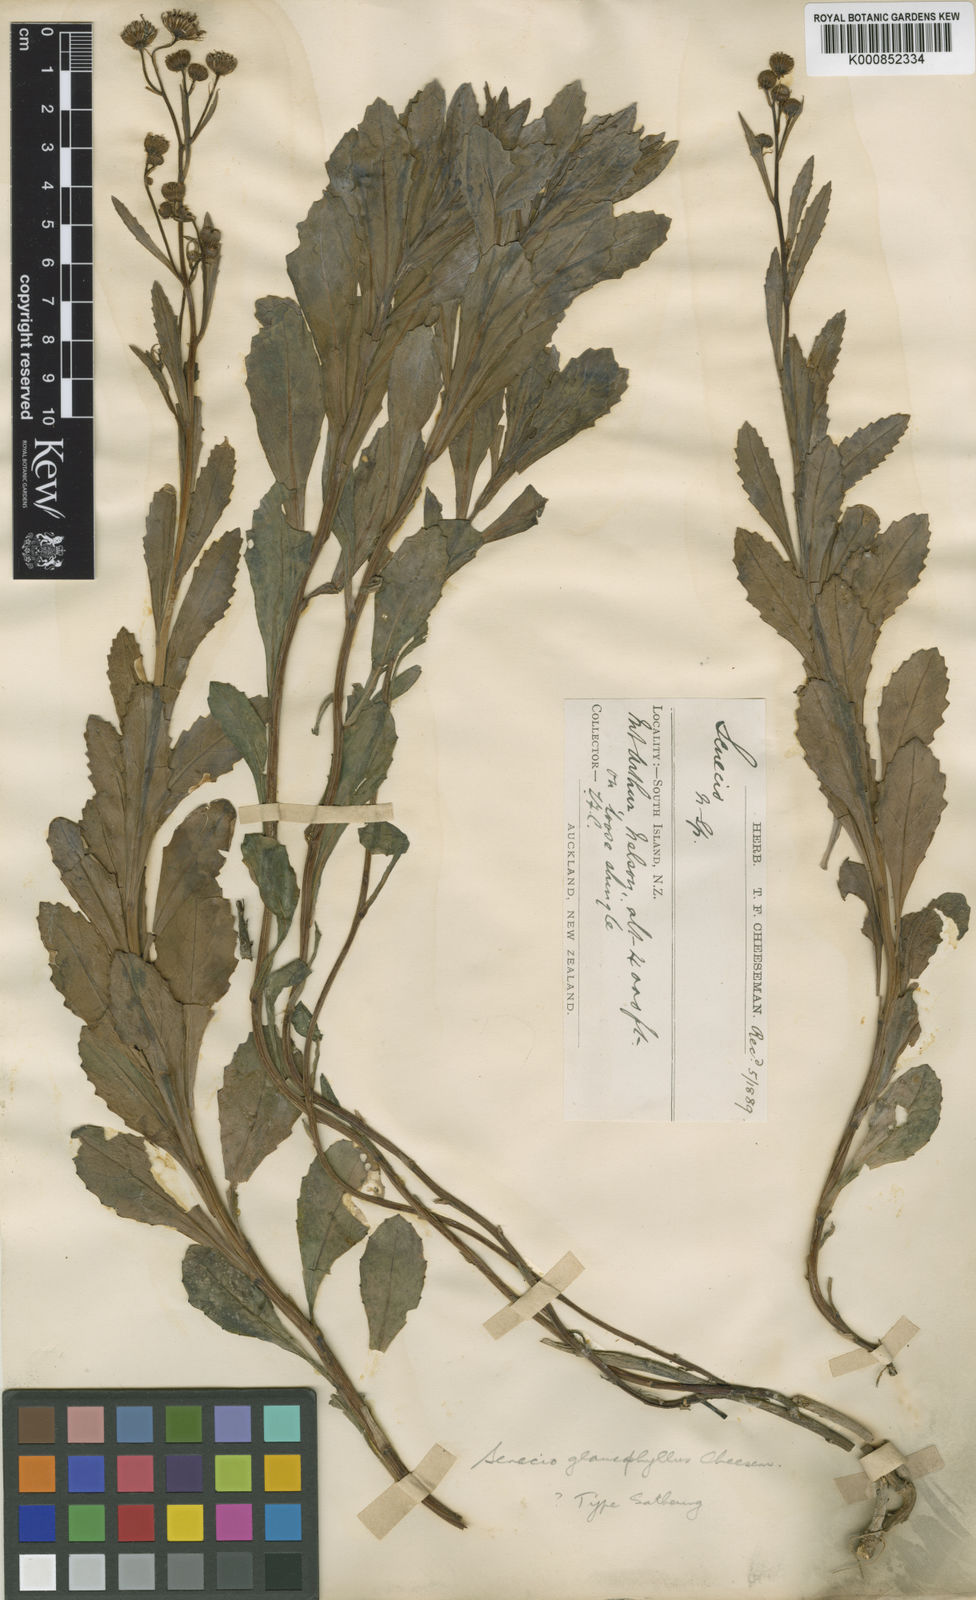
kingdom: Plantae
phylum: Tracheophyta
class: Magnoliopsida
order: Asterales
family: Asteraceae
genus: Senecio
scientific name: Senecio matatini
